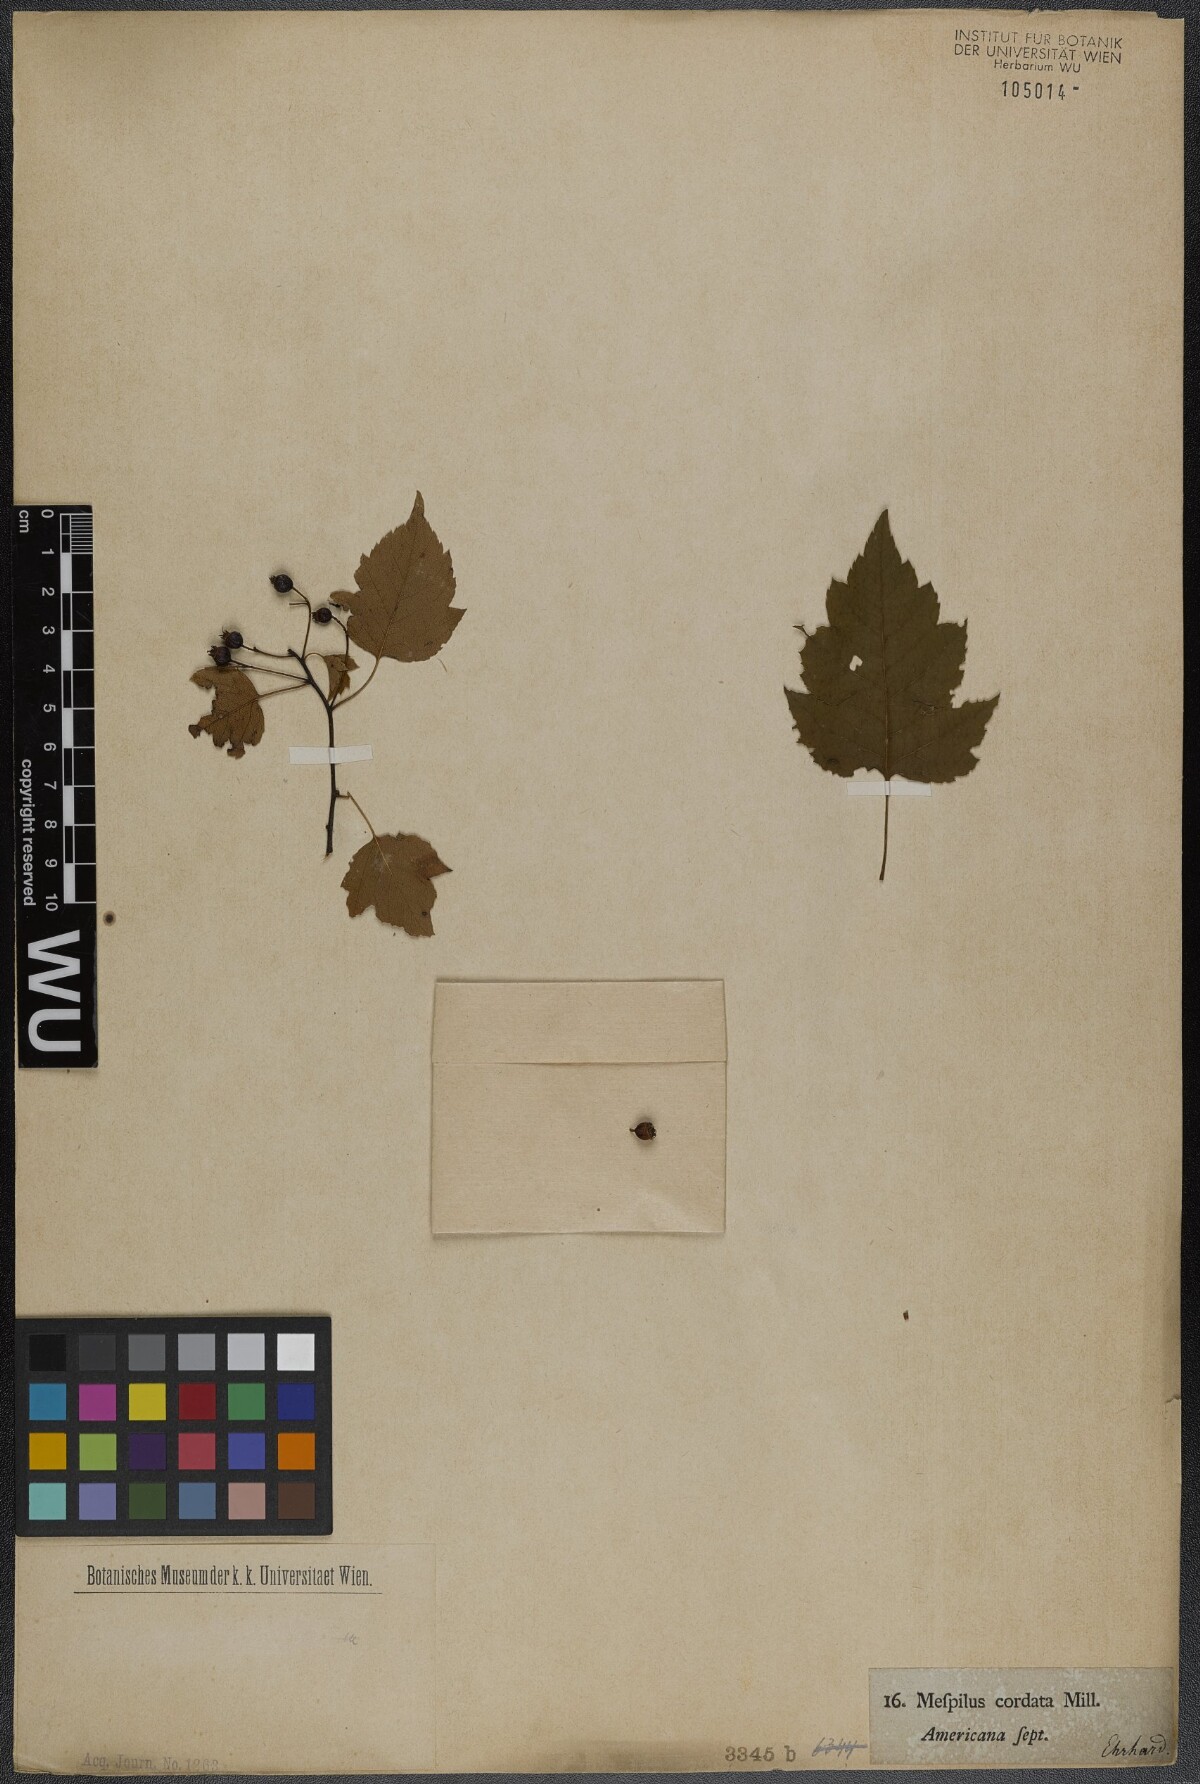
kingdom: Plantae
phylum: Tracheophyta
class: Magnoliopsida
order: Rosales
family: Rosaceae
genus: Crataegus
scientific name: Crataegus phaenopyrum
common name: Washington hawthorn
